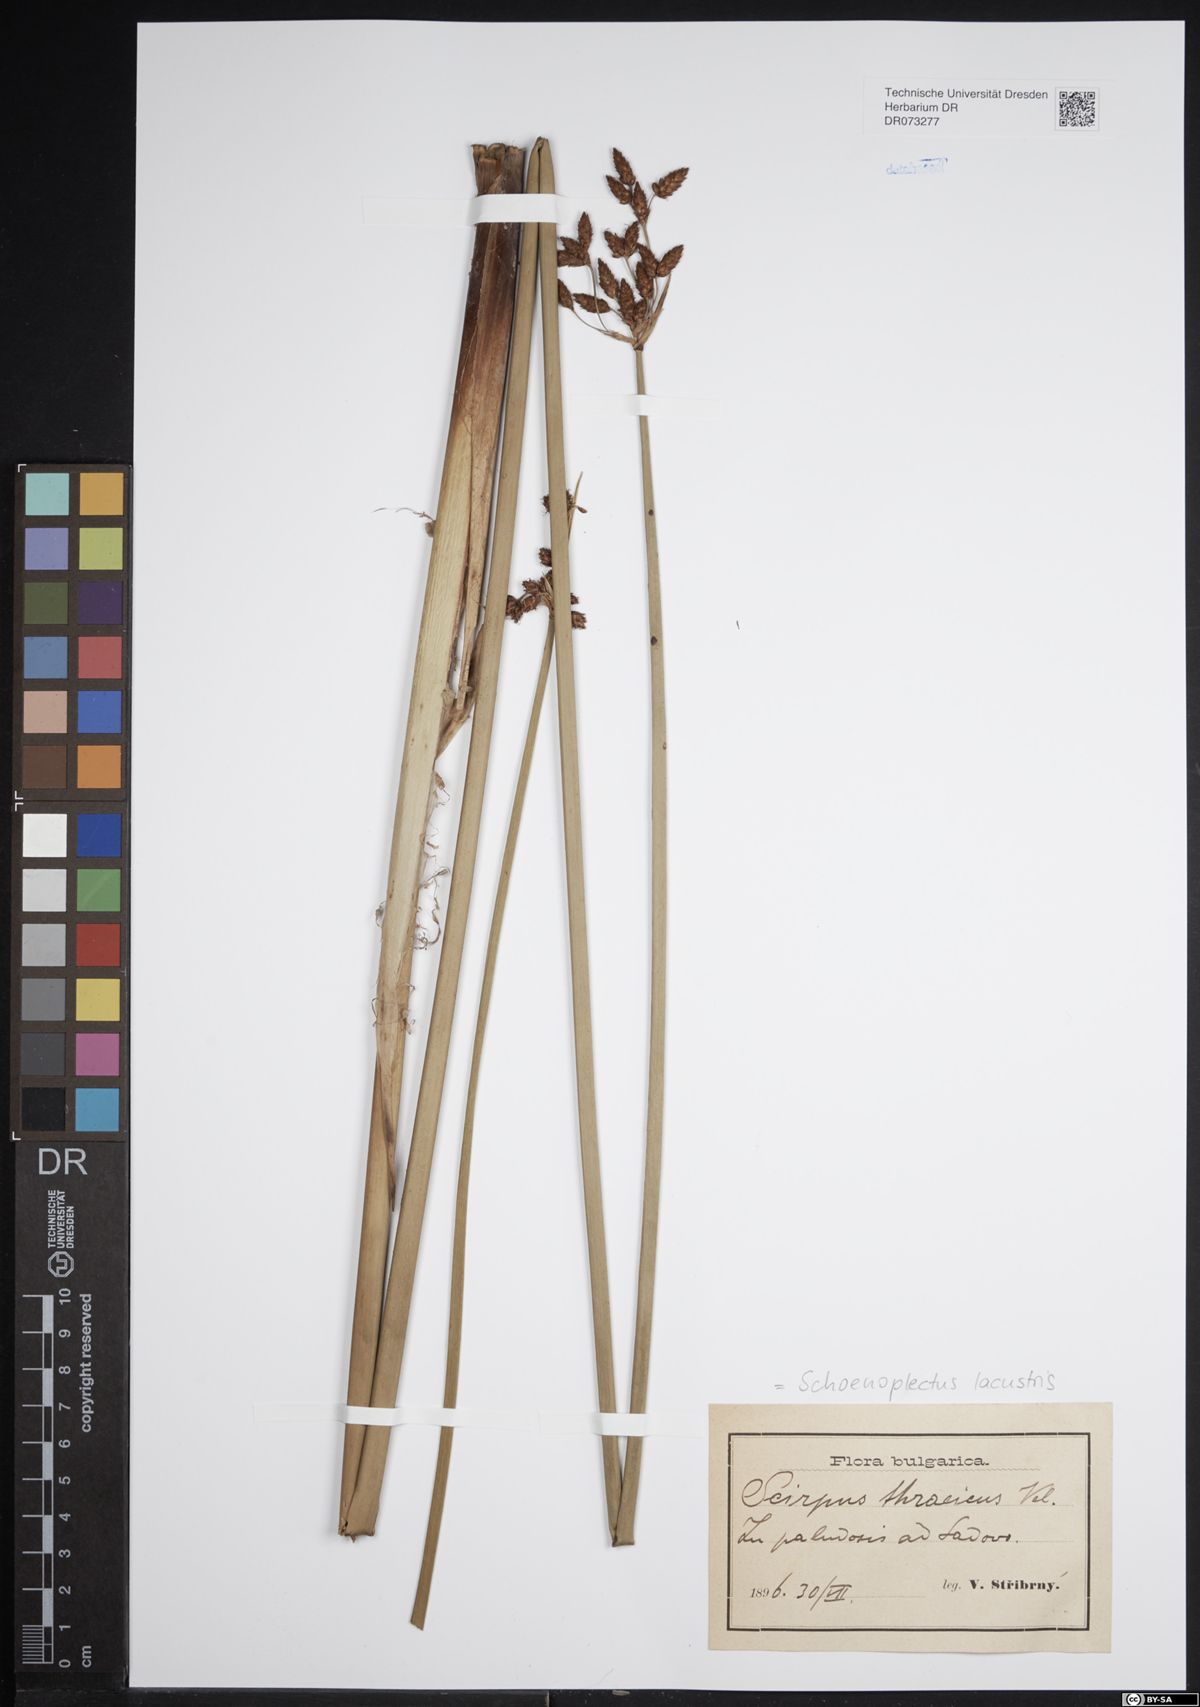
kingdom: Plantae
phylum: Tracheophyta
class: Liliopsida
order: Poales
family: Cyperaceae
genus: Schoenoplectus
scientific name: Schoenoplectus lacustris
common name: Common club-rush
